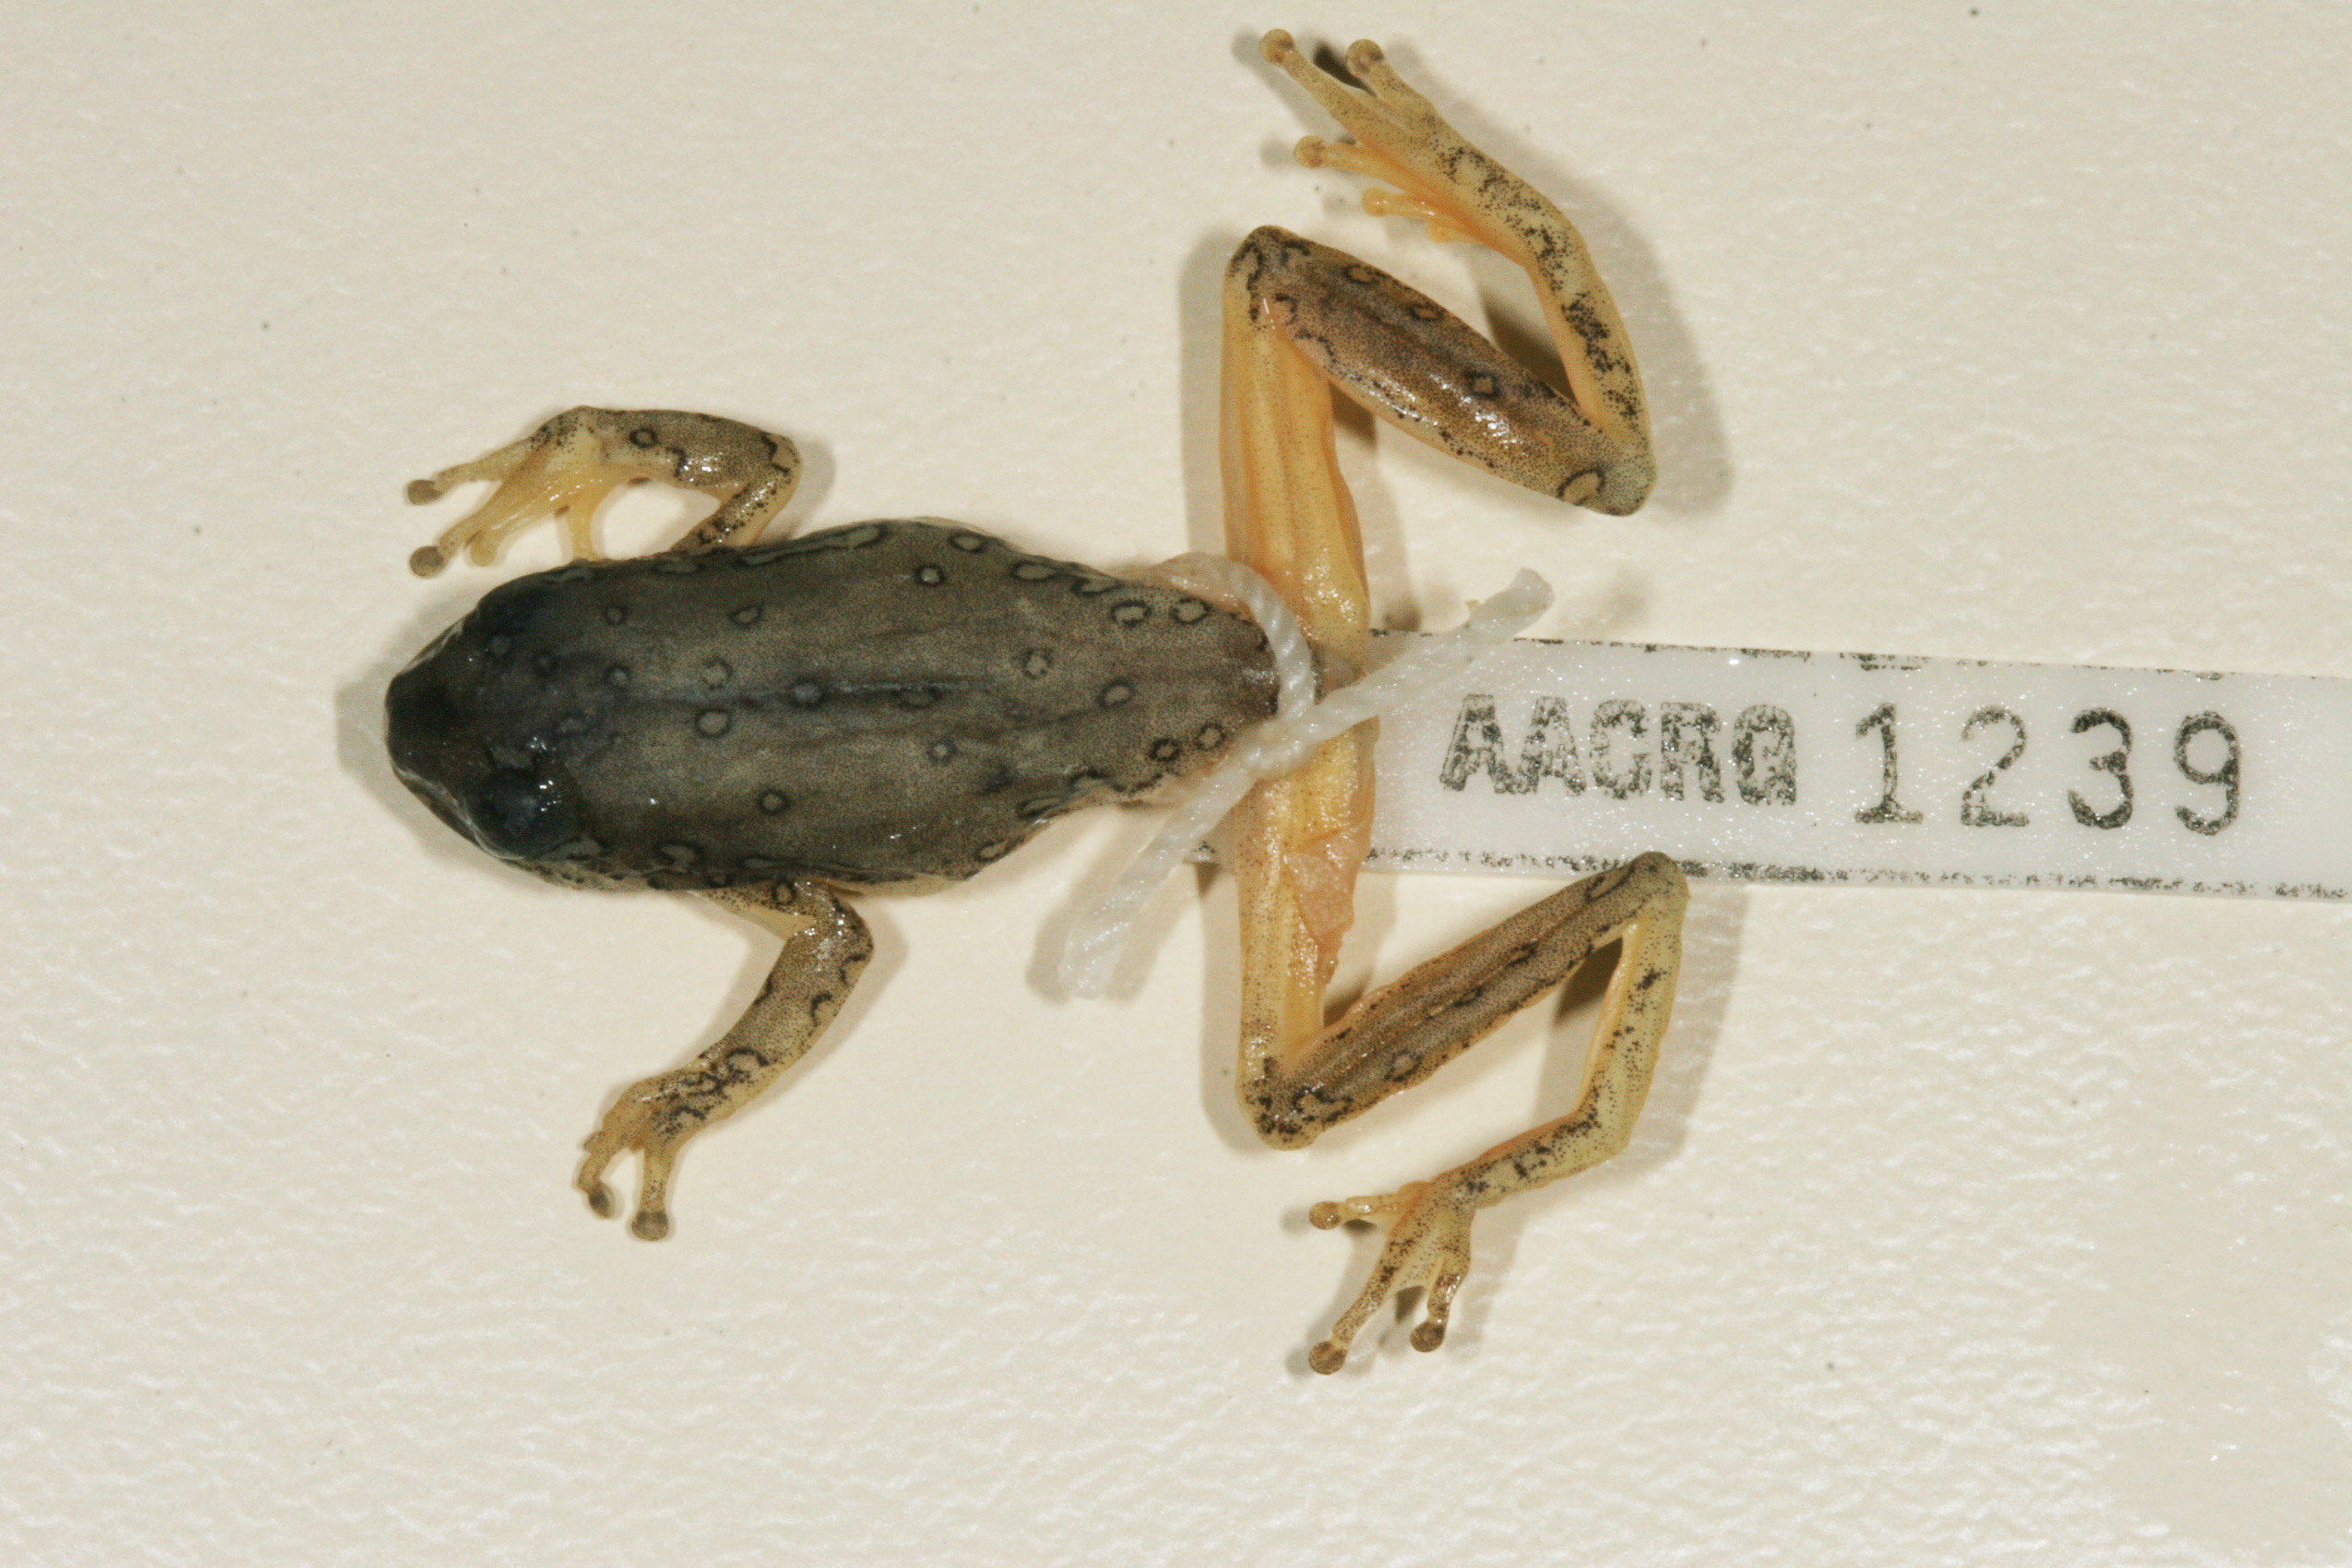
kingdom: Animalia
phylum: Chordata
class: Amphibia
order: Anura
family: Hyperoliidae
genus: Hyperolius
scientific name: Hyperolius marmoratus
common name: Painted reed frog
